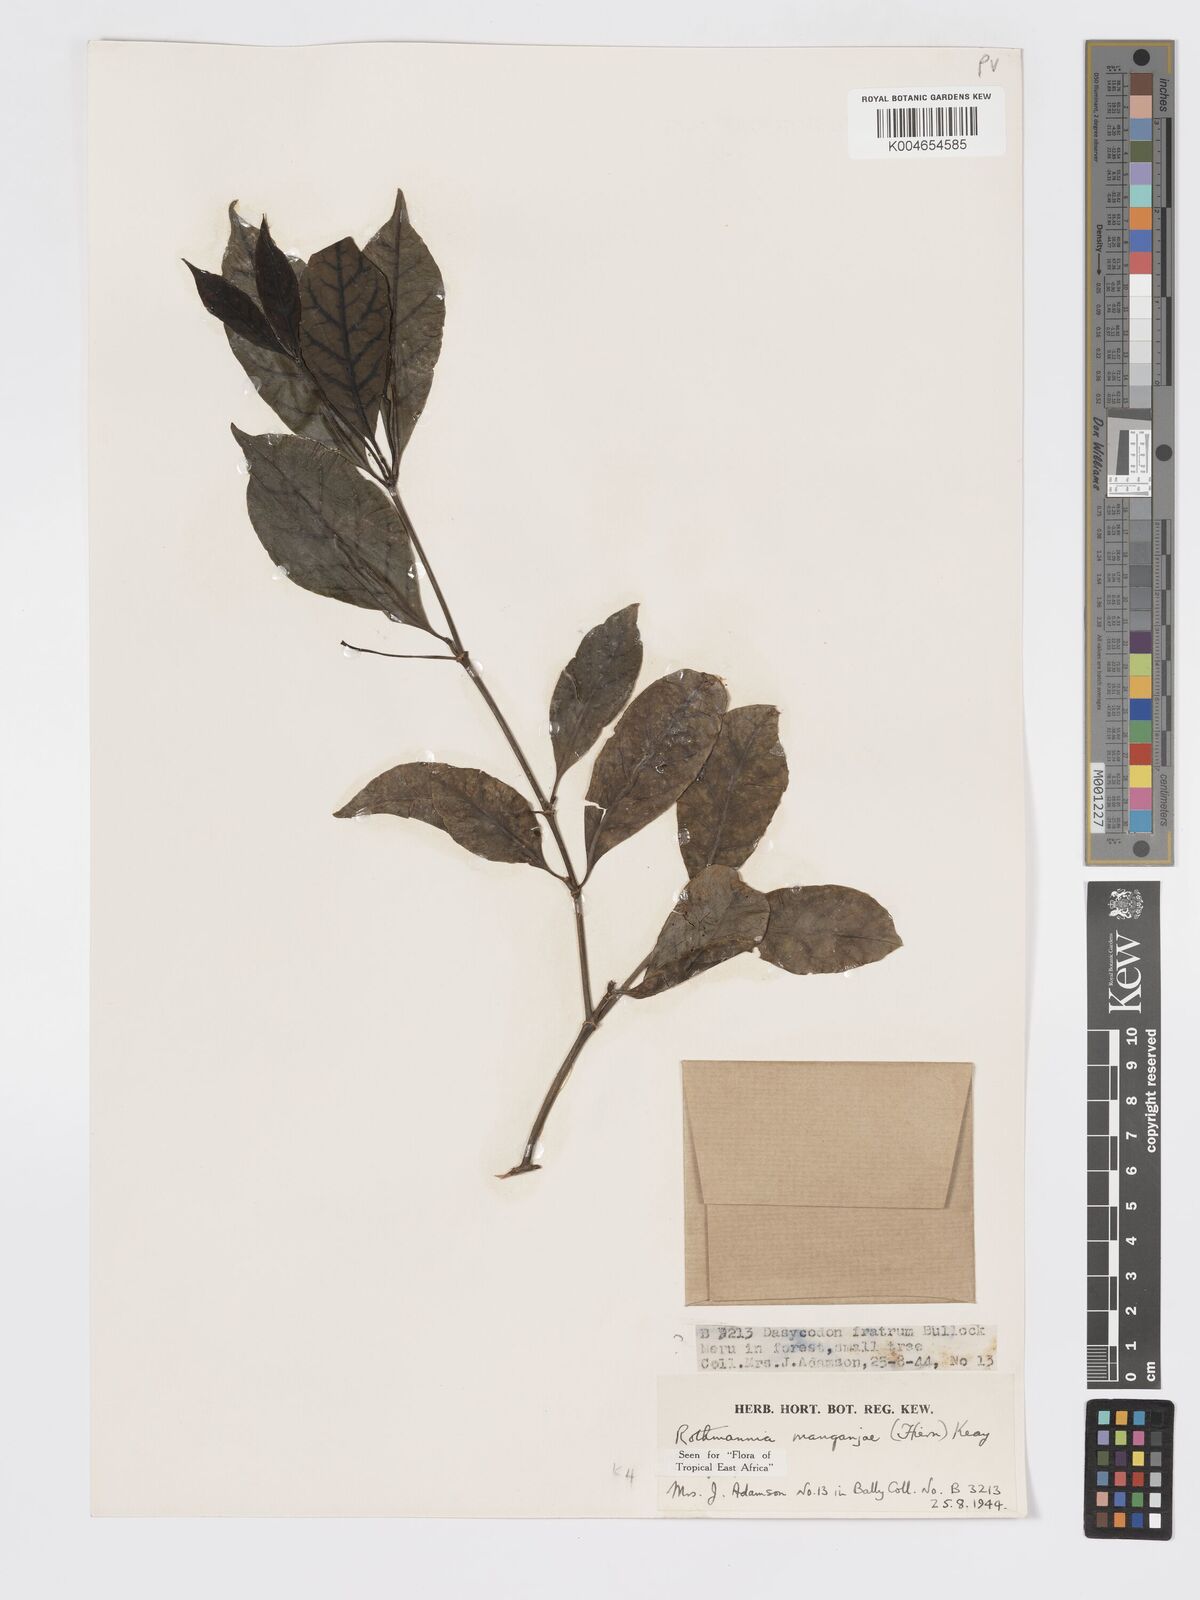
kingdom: Plantae
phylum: Tracheophyta
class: Magnoliopsida
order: Gentianales
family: Rubiaceae
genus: Rothmannia
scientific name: Rothmannia manganjae
